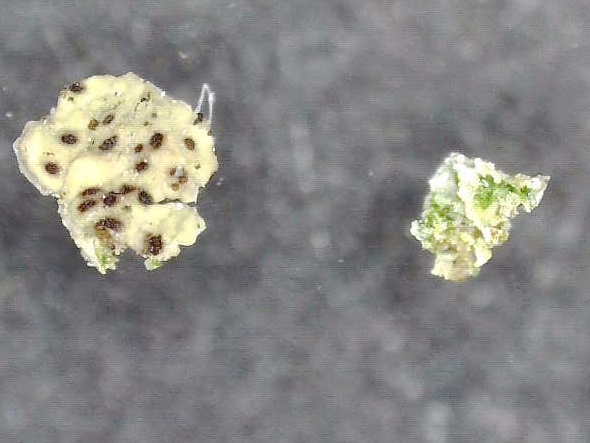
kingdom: Fungi
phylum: Ascomycota
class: Lecanoromycetes
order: Acarosporales
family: Acarosporaceae
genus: Myriospora
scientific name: Myriospora smaragdula
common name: liden småsporelav
